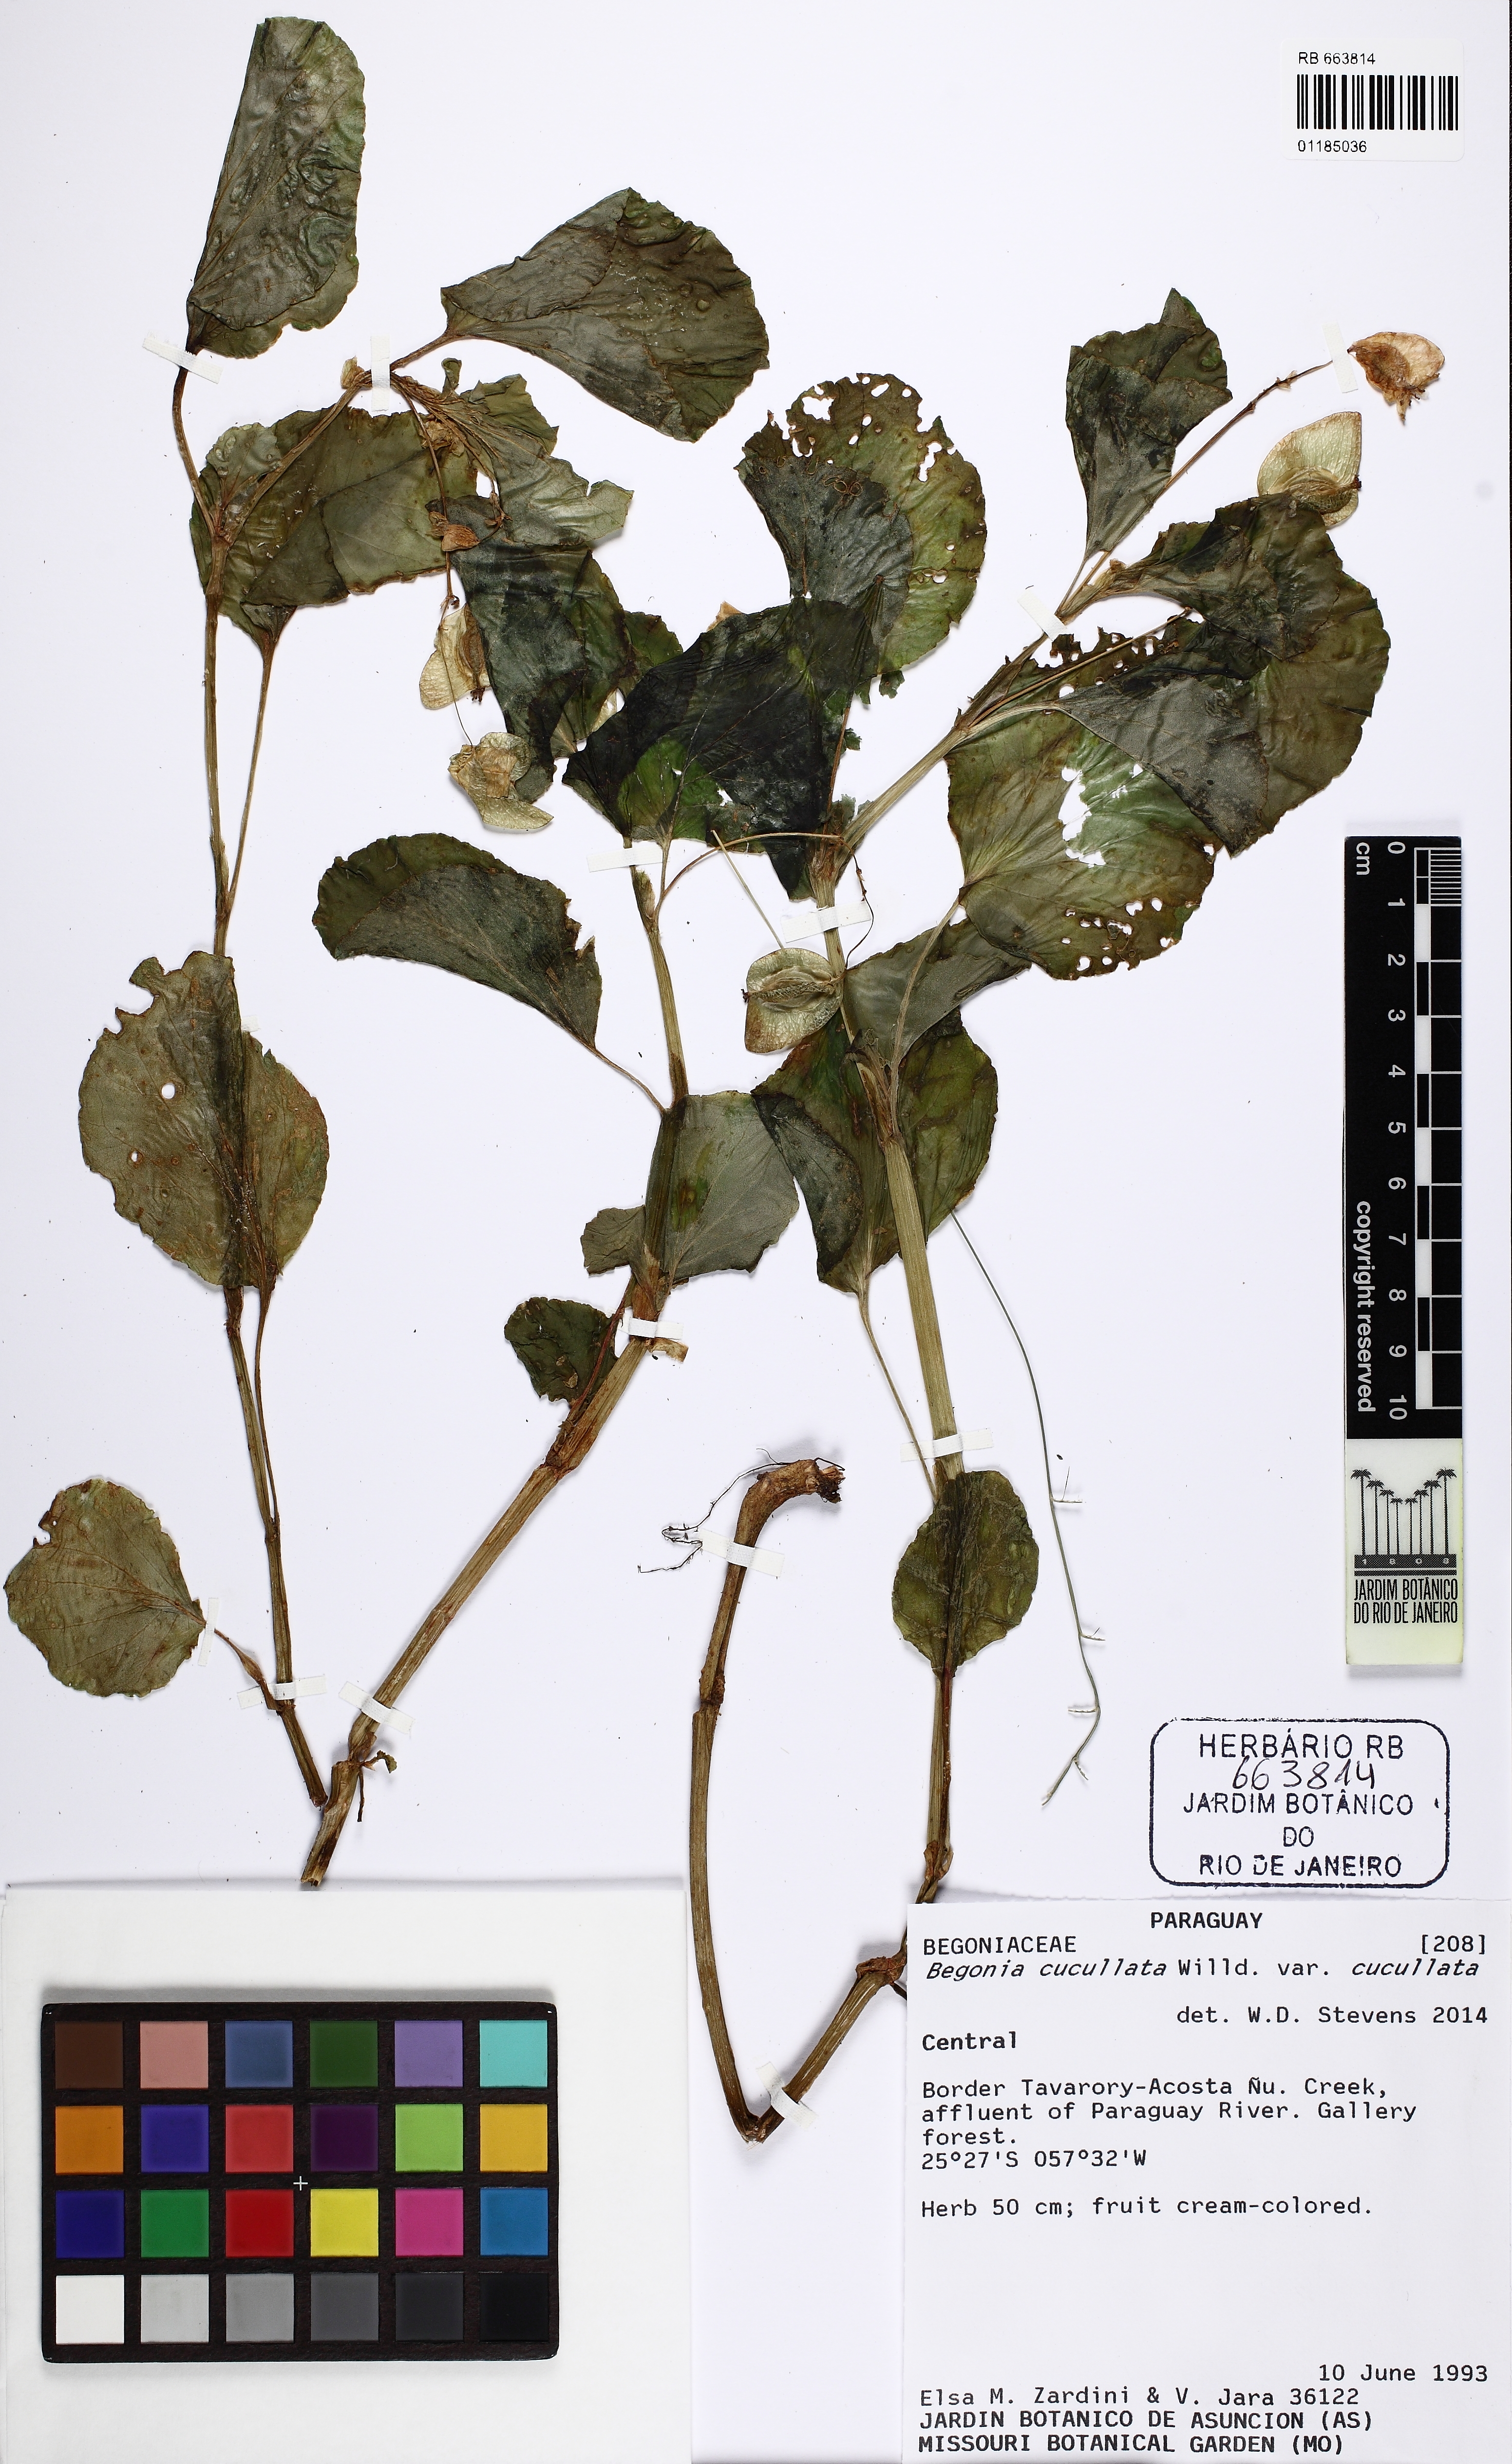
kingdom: Plantae
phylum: Tracheophyta
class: Magnoliopsida
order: Cucurbitales
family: Begoniaceae
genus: Begonia
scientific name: Begonia cucullata
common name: Clubbed begonia
